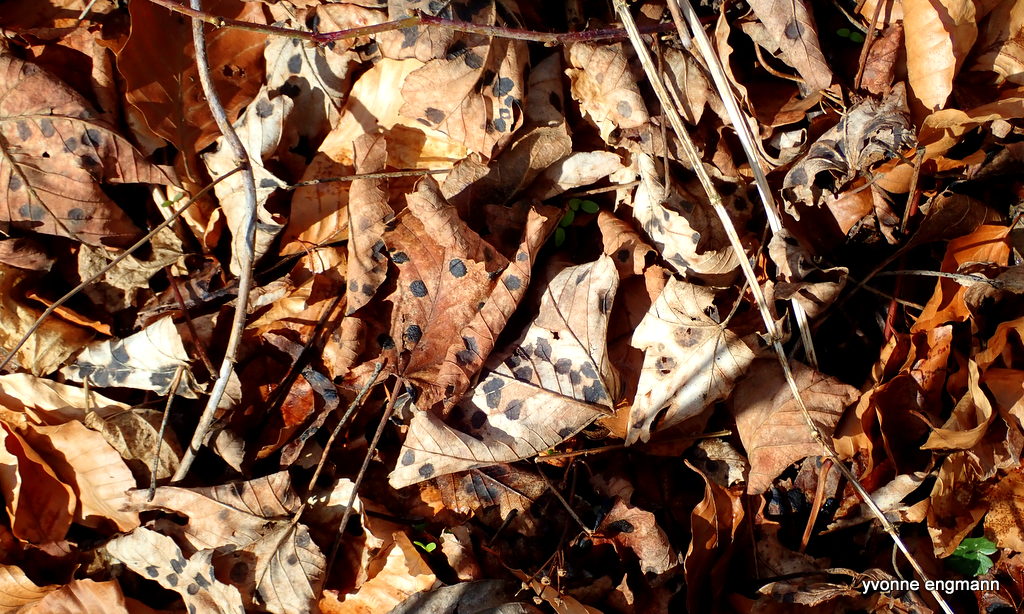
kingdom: Fungi
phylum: Ascomycota
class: Leotiomycetes
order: Rhytismatales
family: Rhytismataceae
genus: Rhytisma
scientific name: Rhytisma acerinum
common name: ahorn-rynkeplet
